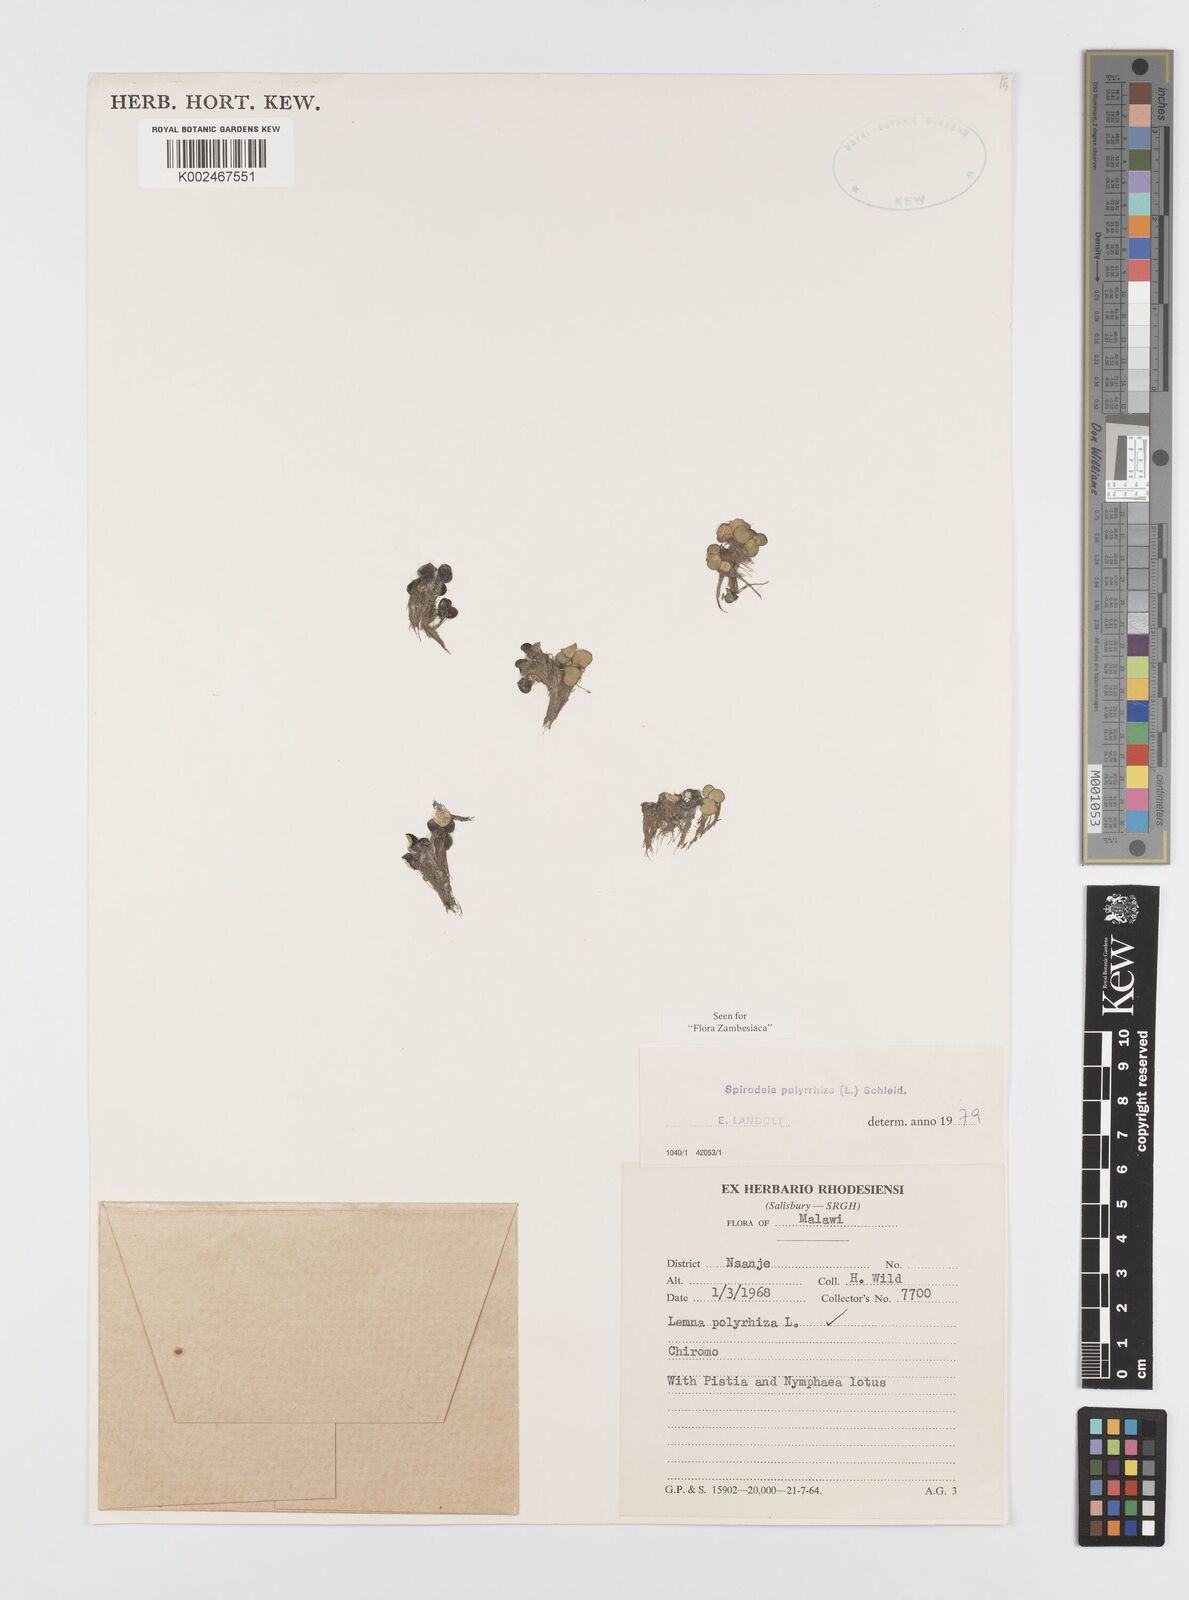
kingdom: Plantae
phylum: Tracheophyta
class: Liliopsida
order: Alismatales
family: Araceae
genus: Spirodela
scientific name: Spirodela polyrhiza
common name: Great duckweed
